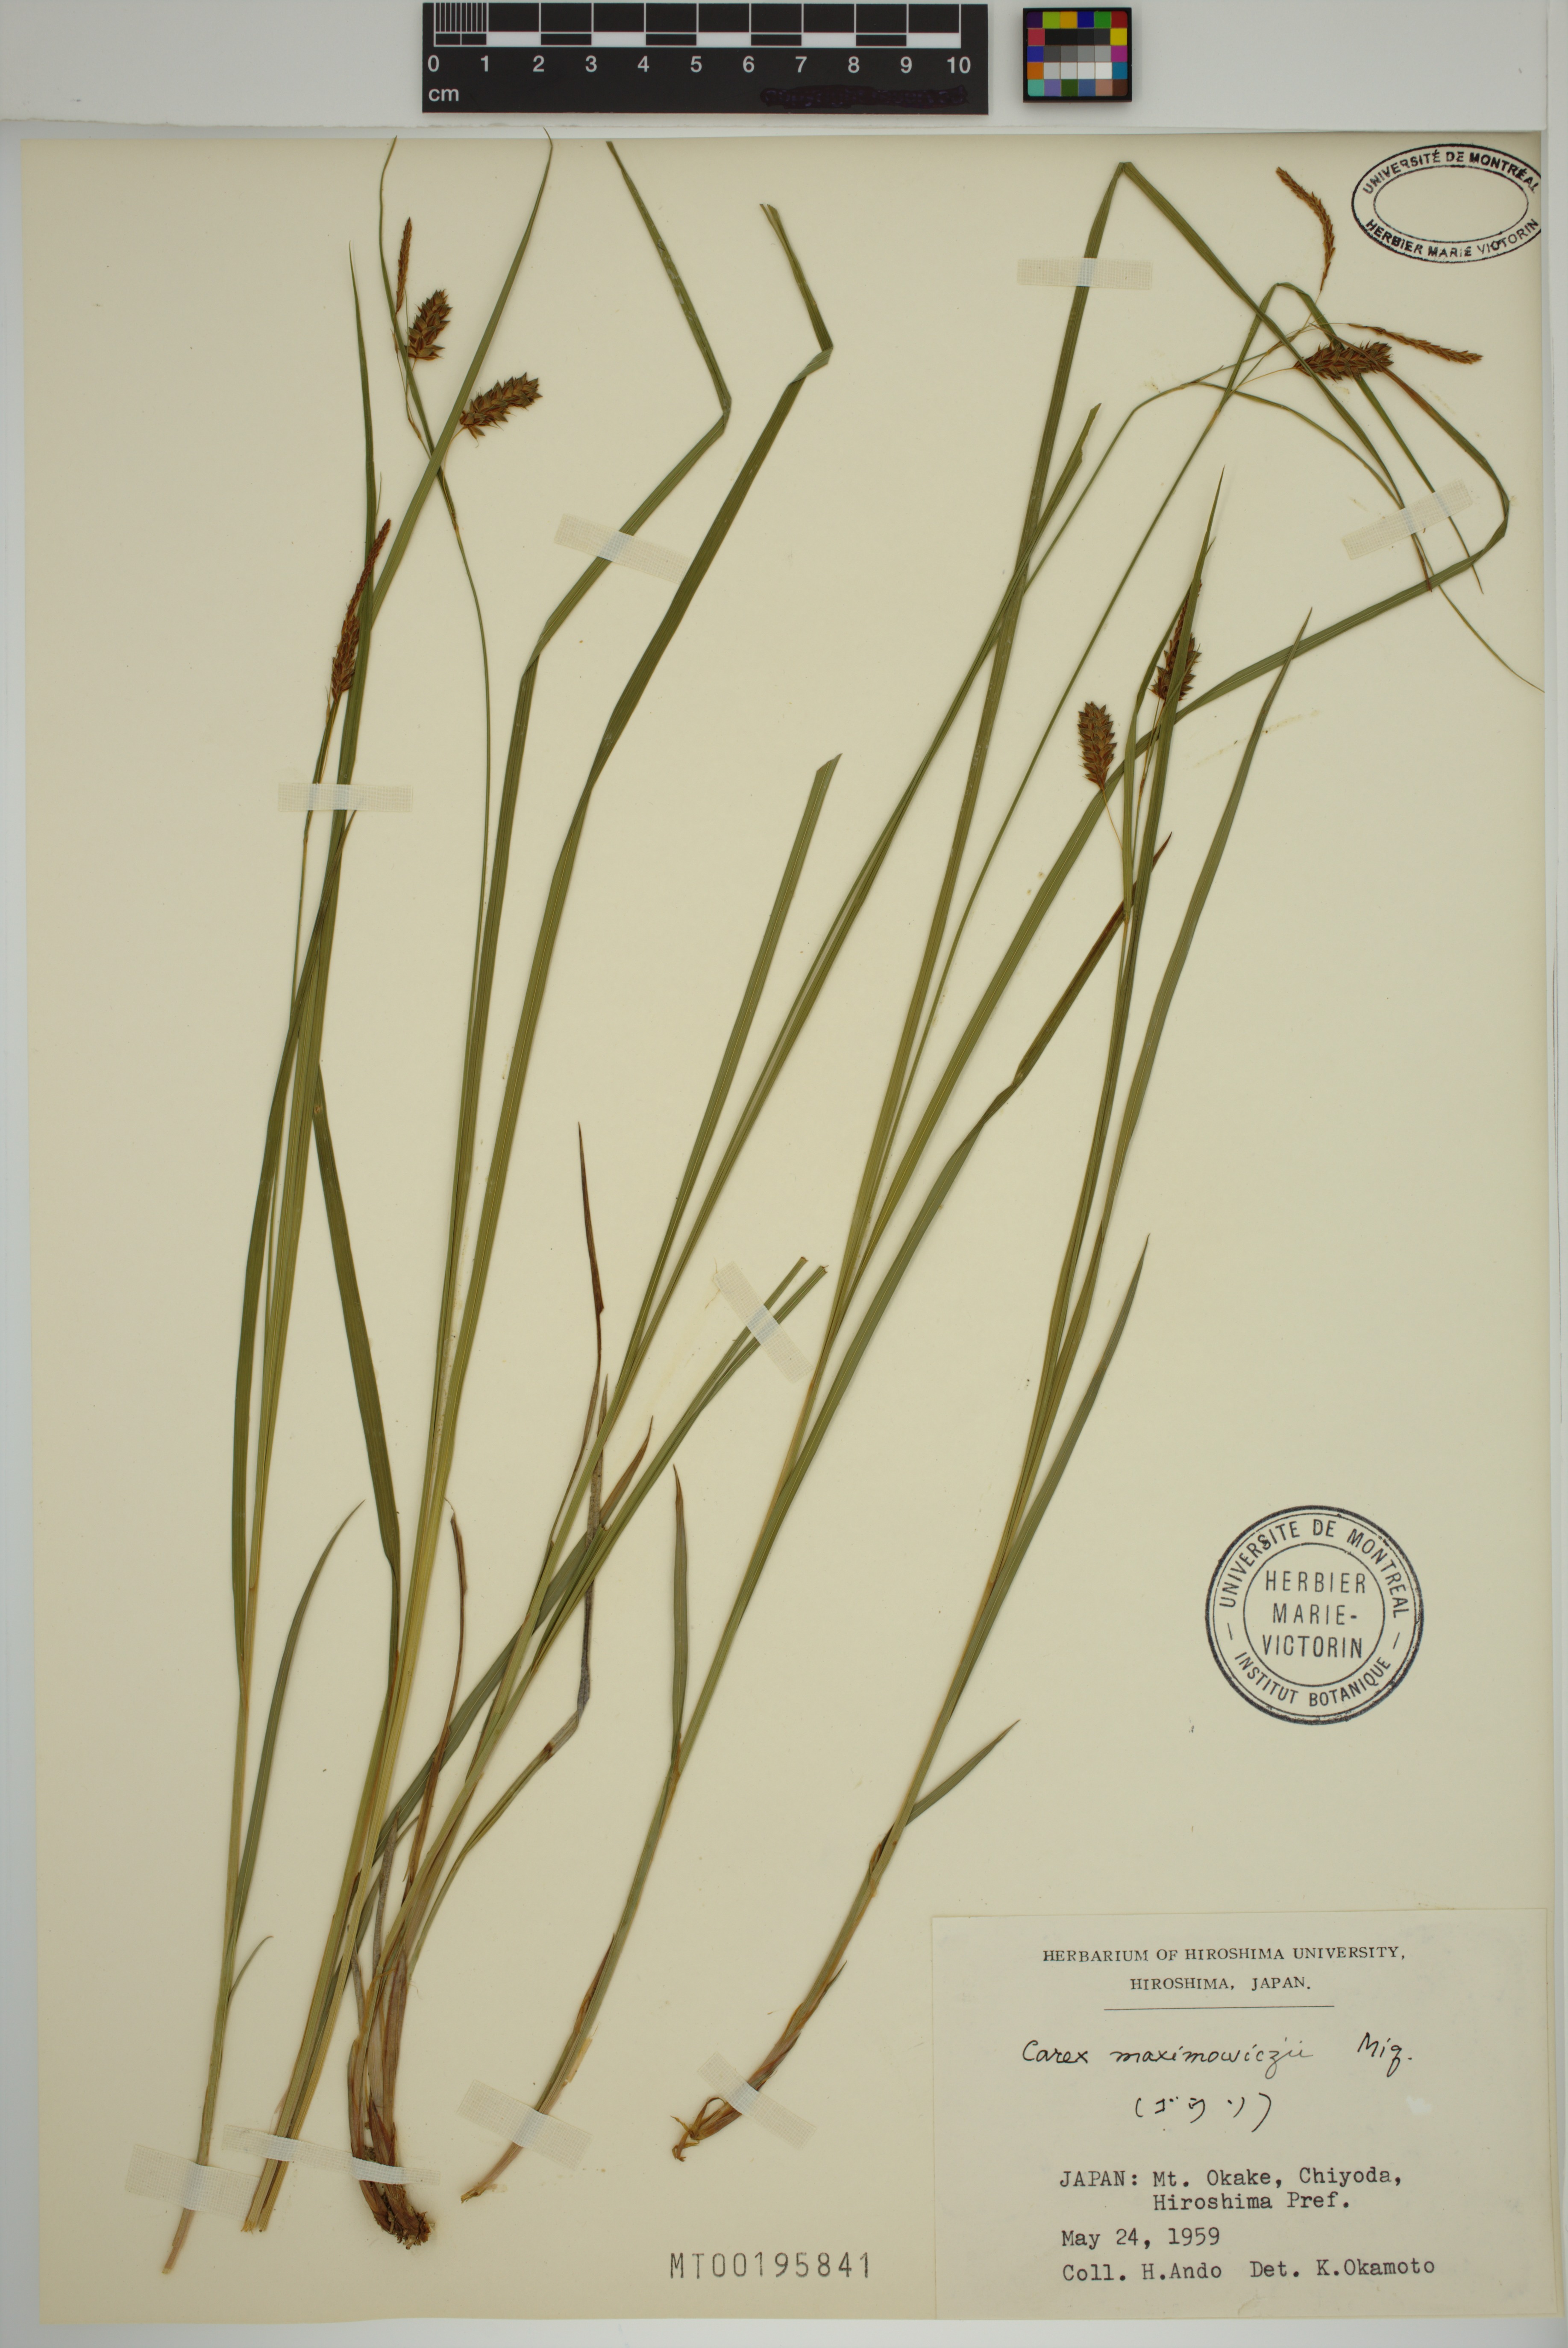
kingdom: Plantae
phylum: Tracheophyta
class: Liliopsida
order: Poales
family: Cyperaceae
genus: Carex
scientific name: Carex maximowiczii
